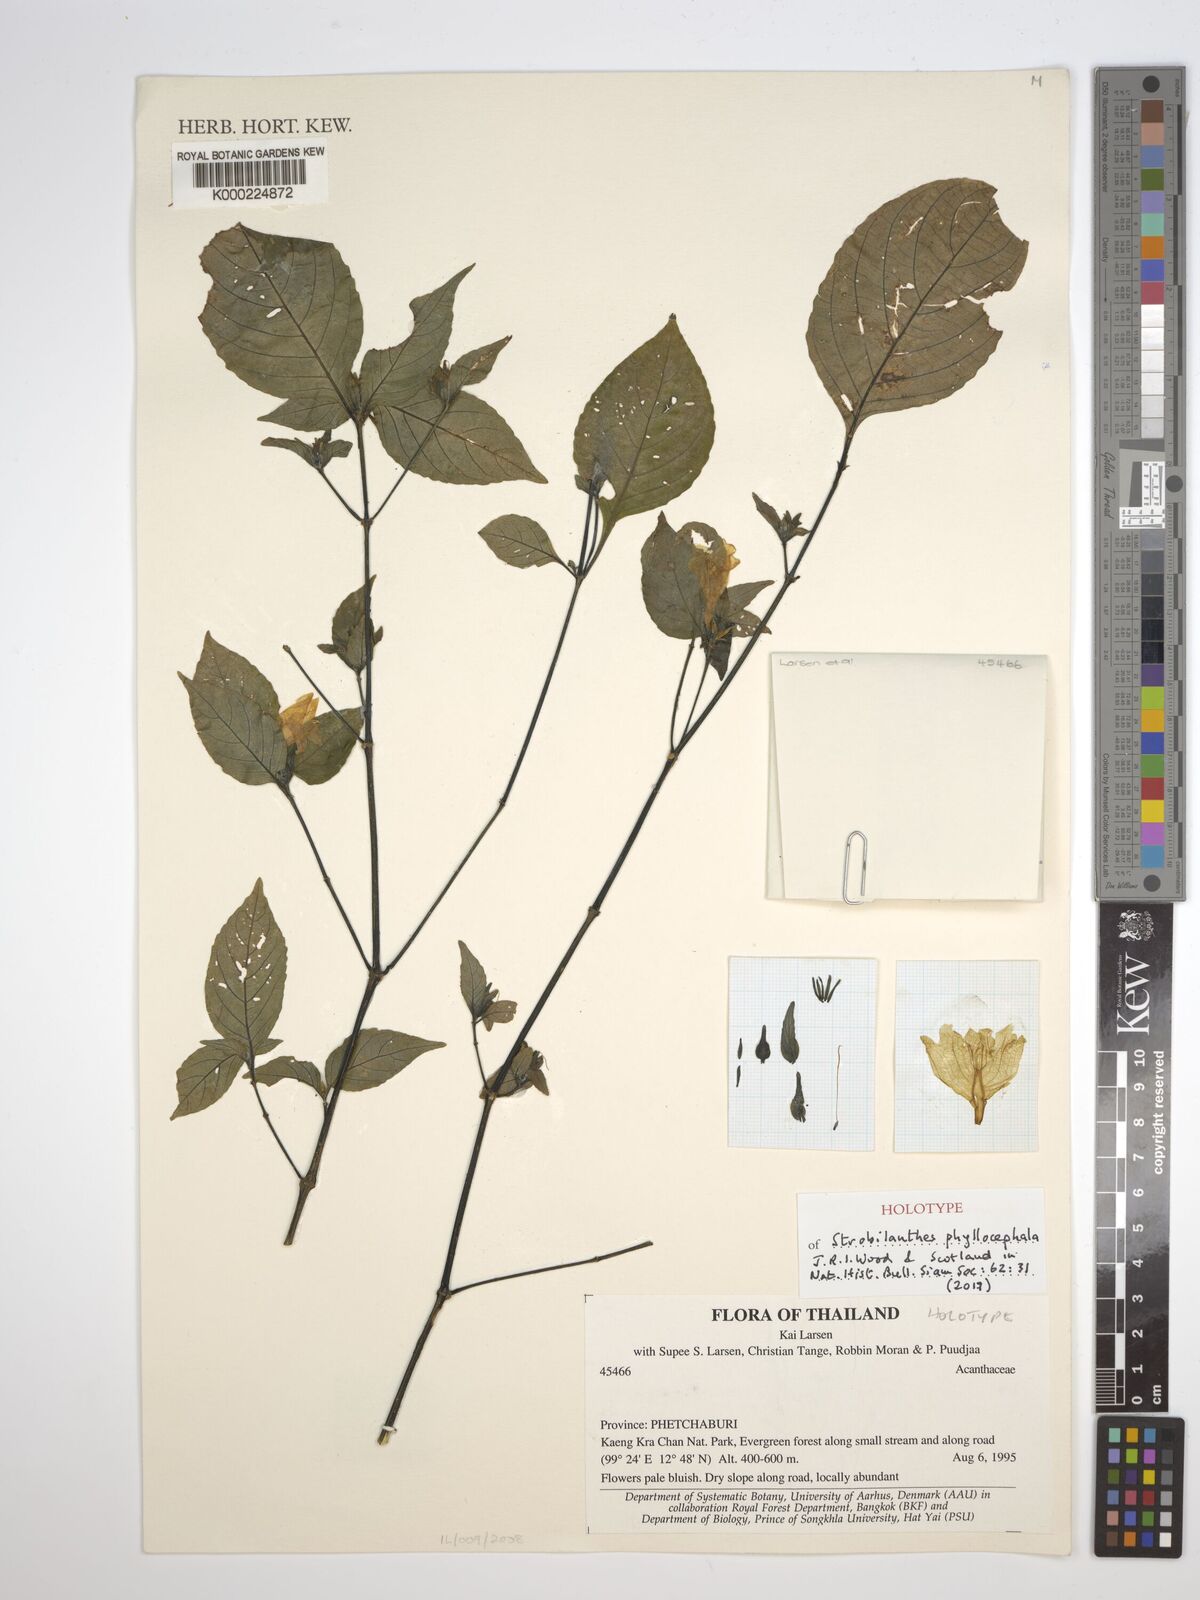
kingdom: Plantae
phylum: Tracheophyta
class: Magnoliopsida
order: Lamiales
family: Acanthaceae
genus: Strobilanthes
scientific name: Strobilanthes phyllocephala
